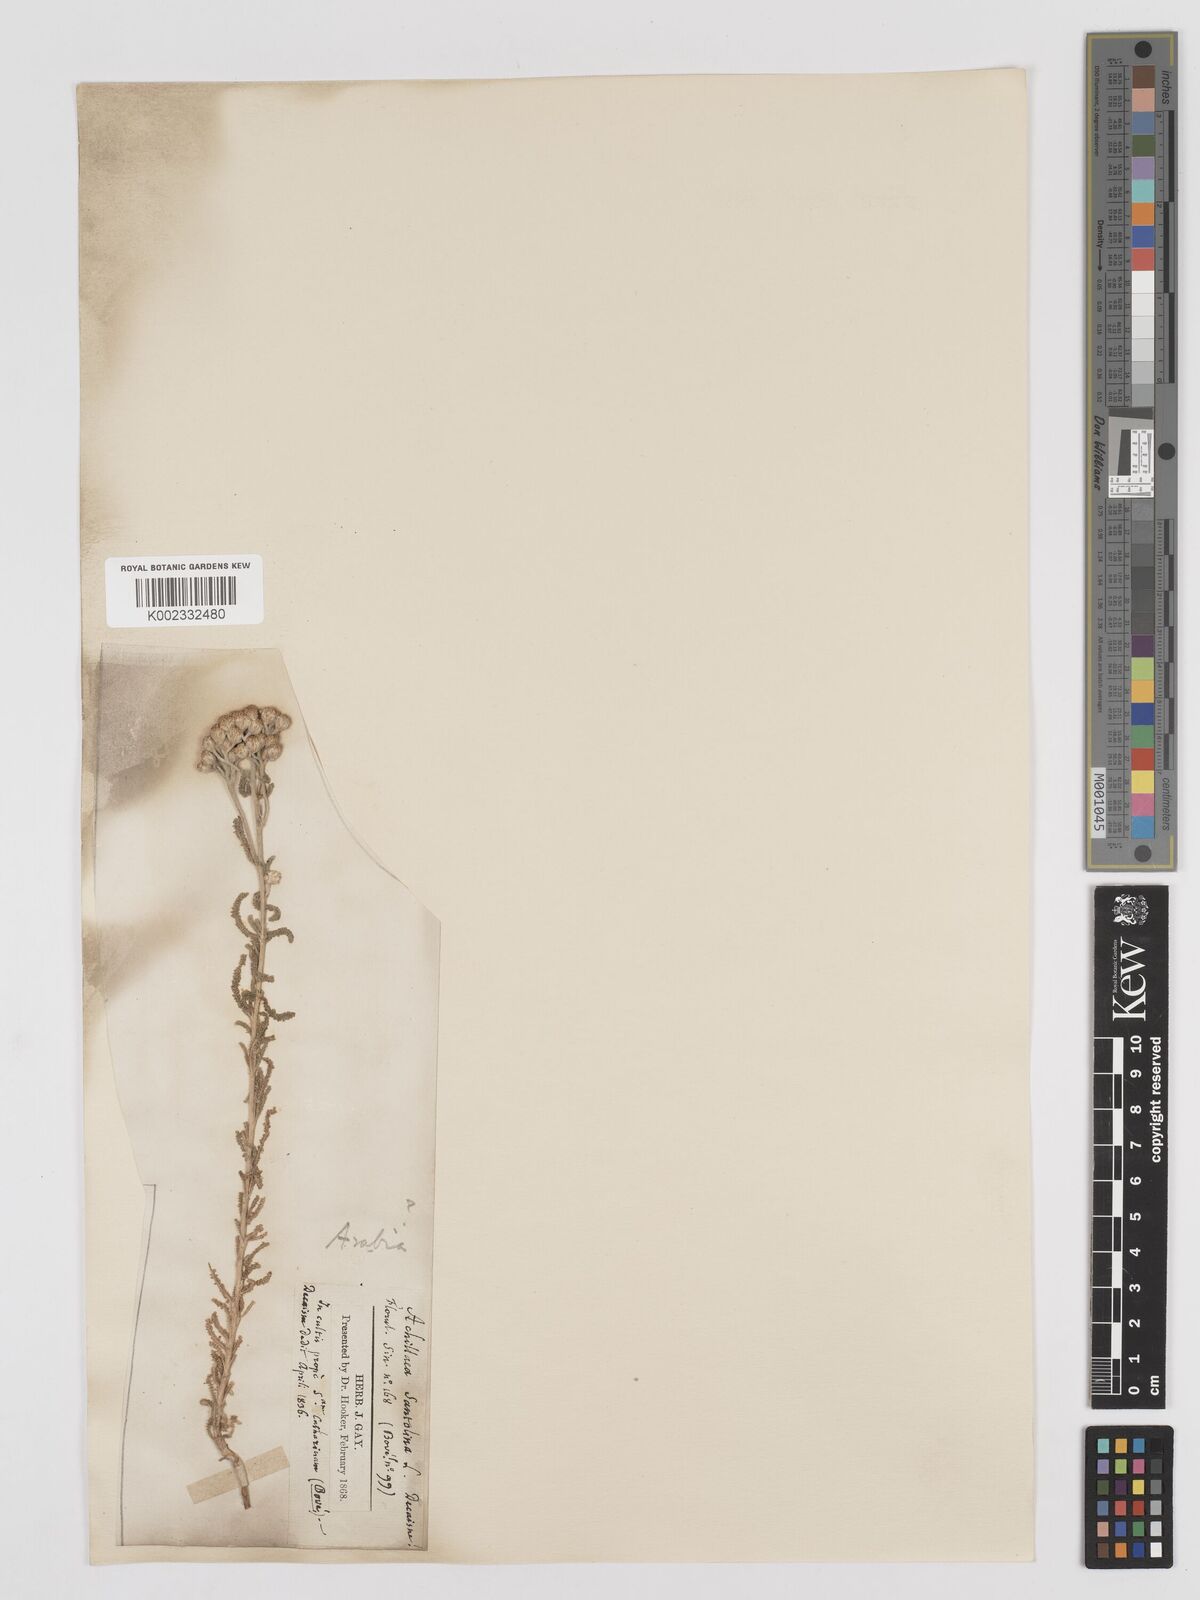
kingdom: Plantae
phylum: Tracheophyta
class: Magnoliopsida
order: Asterales
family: Asteraceae
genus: Achillea
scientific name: Achillea tenuifolia
